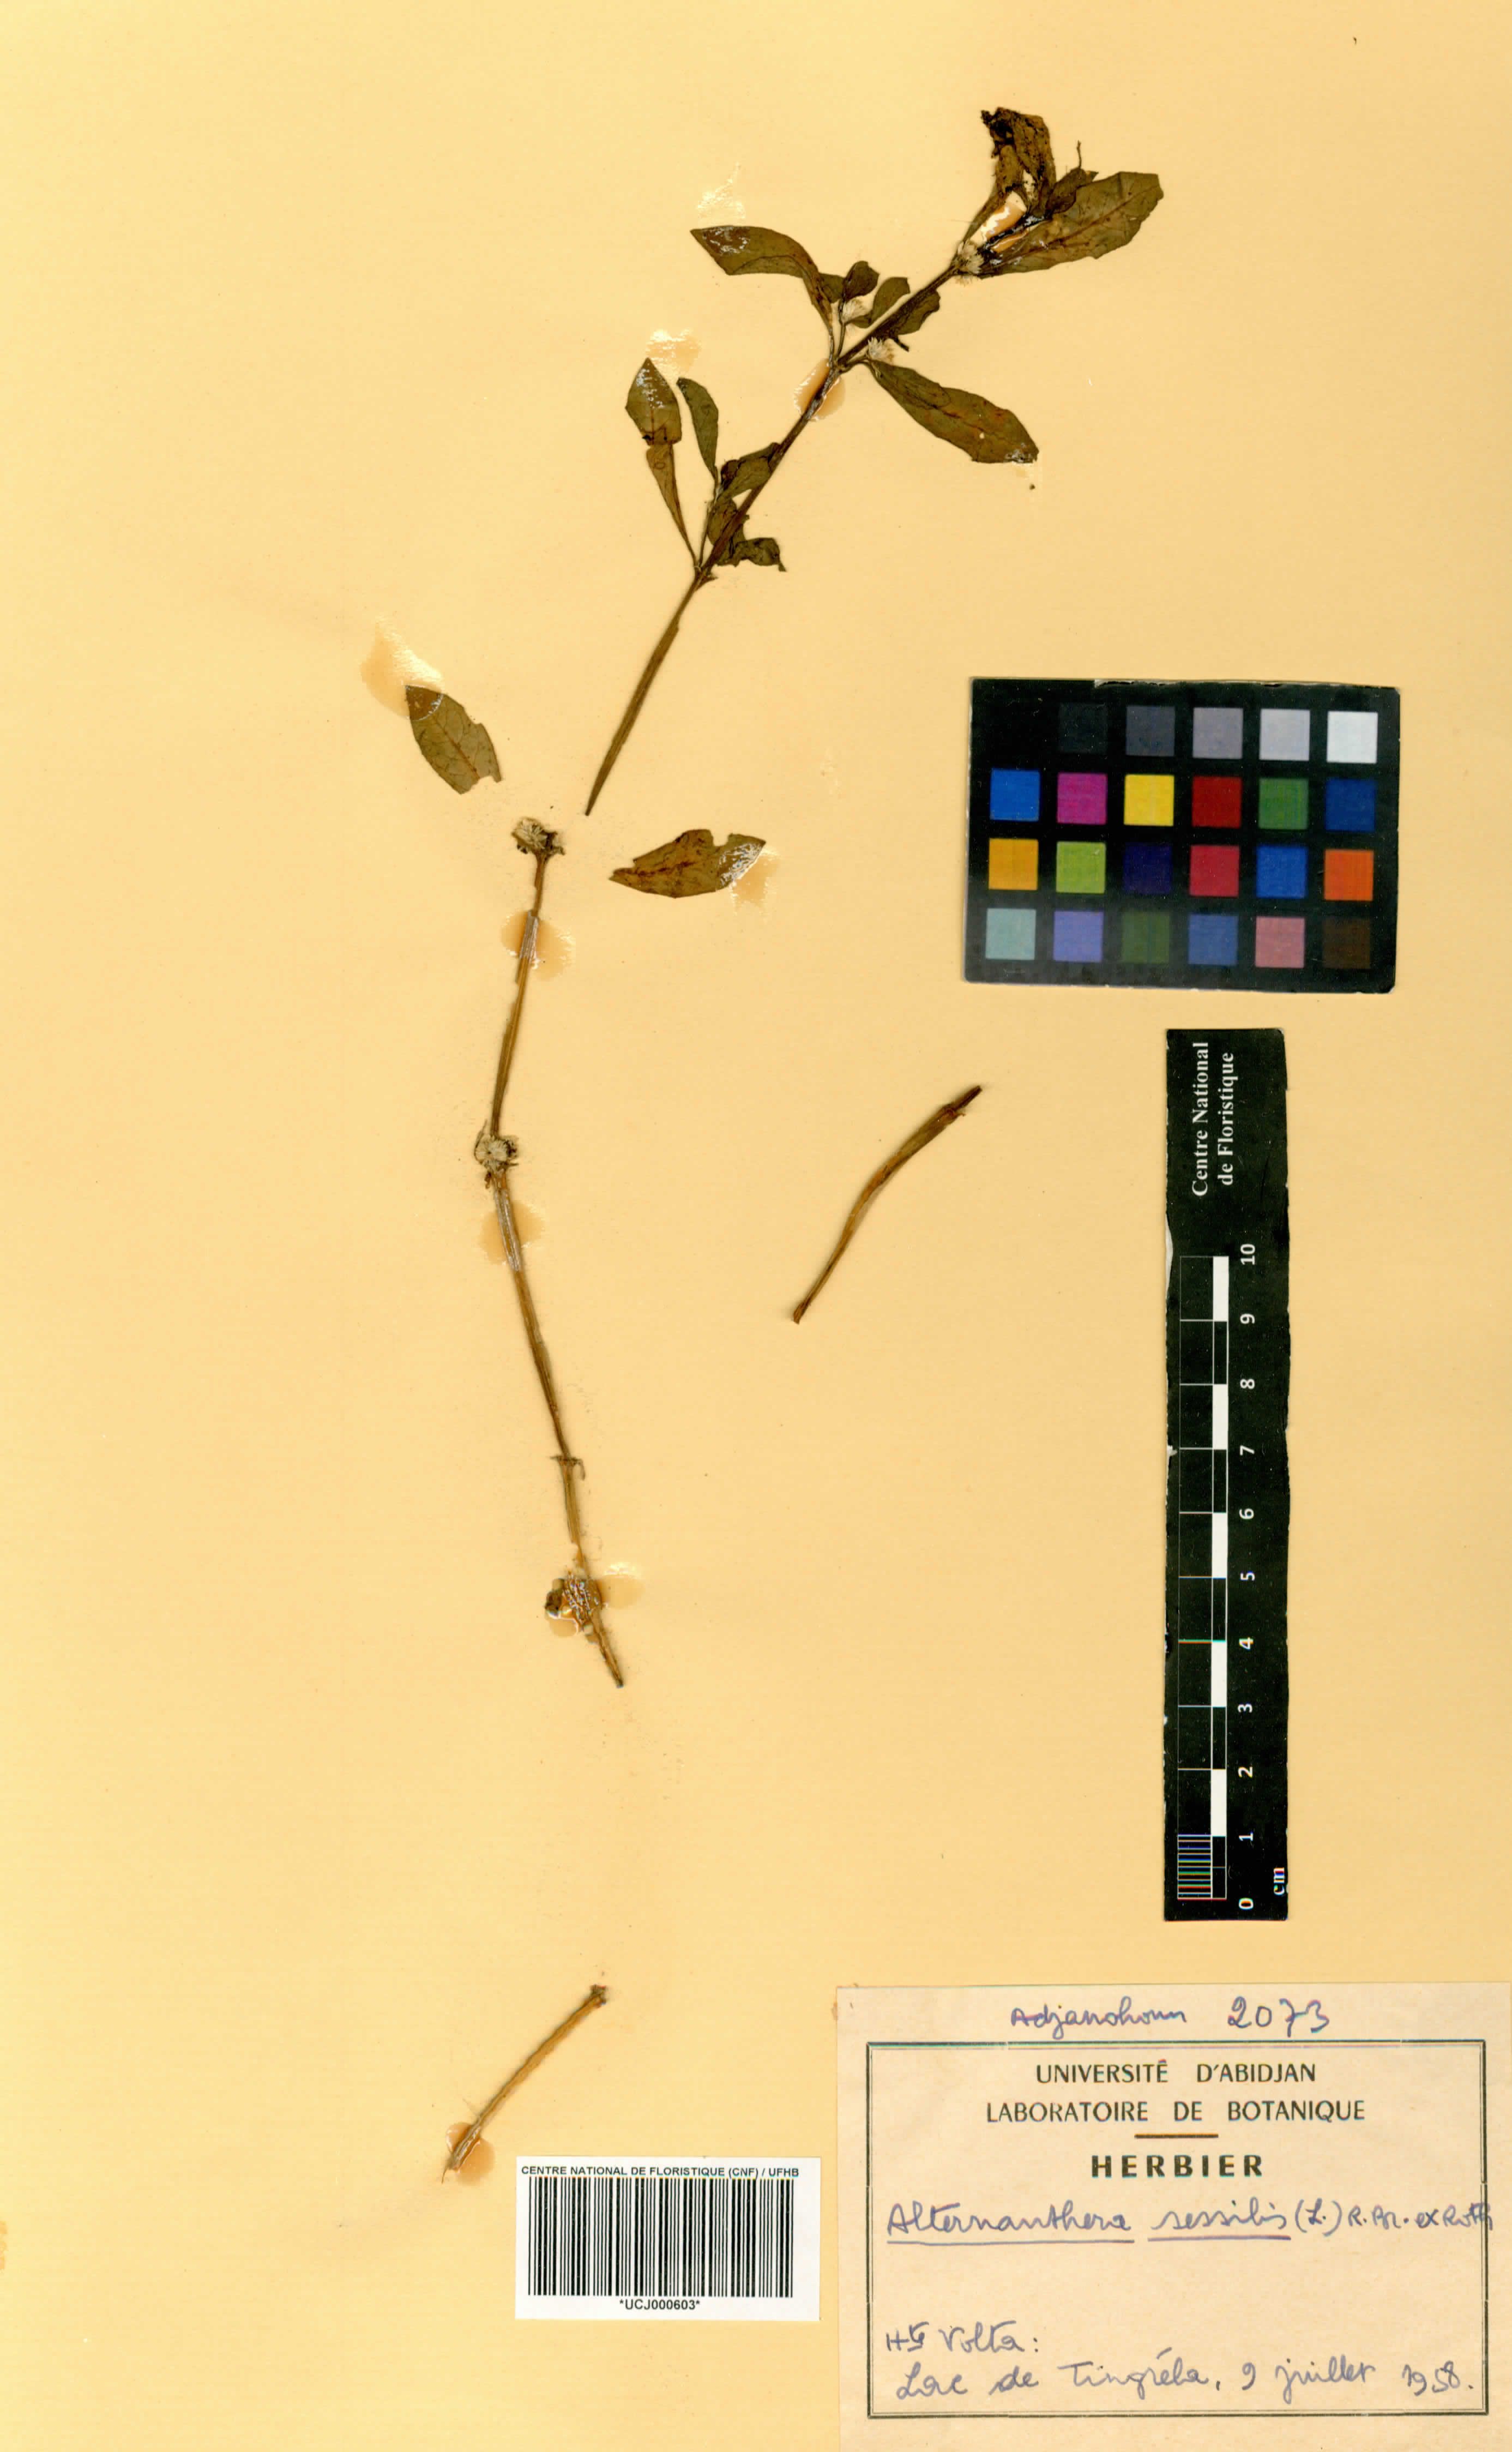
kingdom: Plantae
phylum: Tracheophyta
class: Magnoliopsida
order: Caryophyllales
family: Amaranthaceae
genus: Alternanthera
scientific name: Alternanthera sessilis
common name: Sessile joyweed
